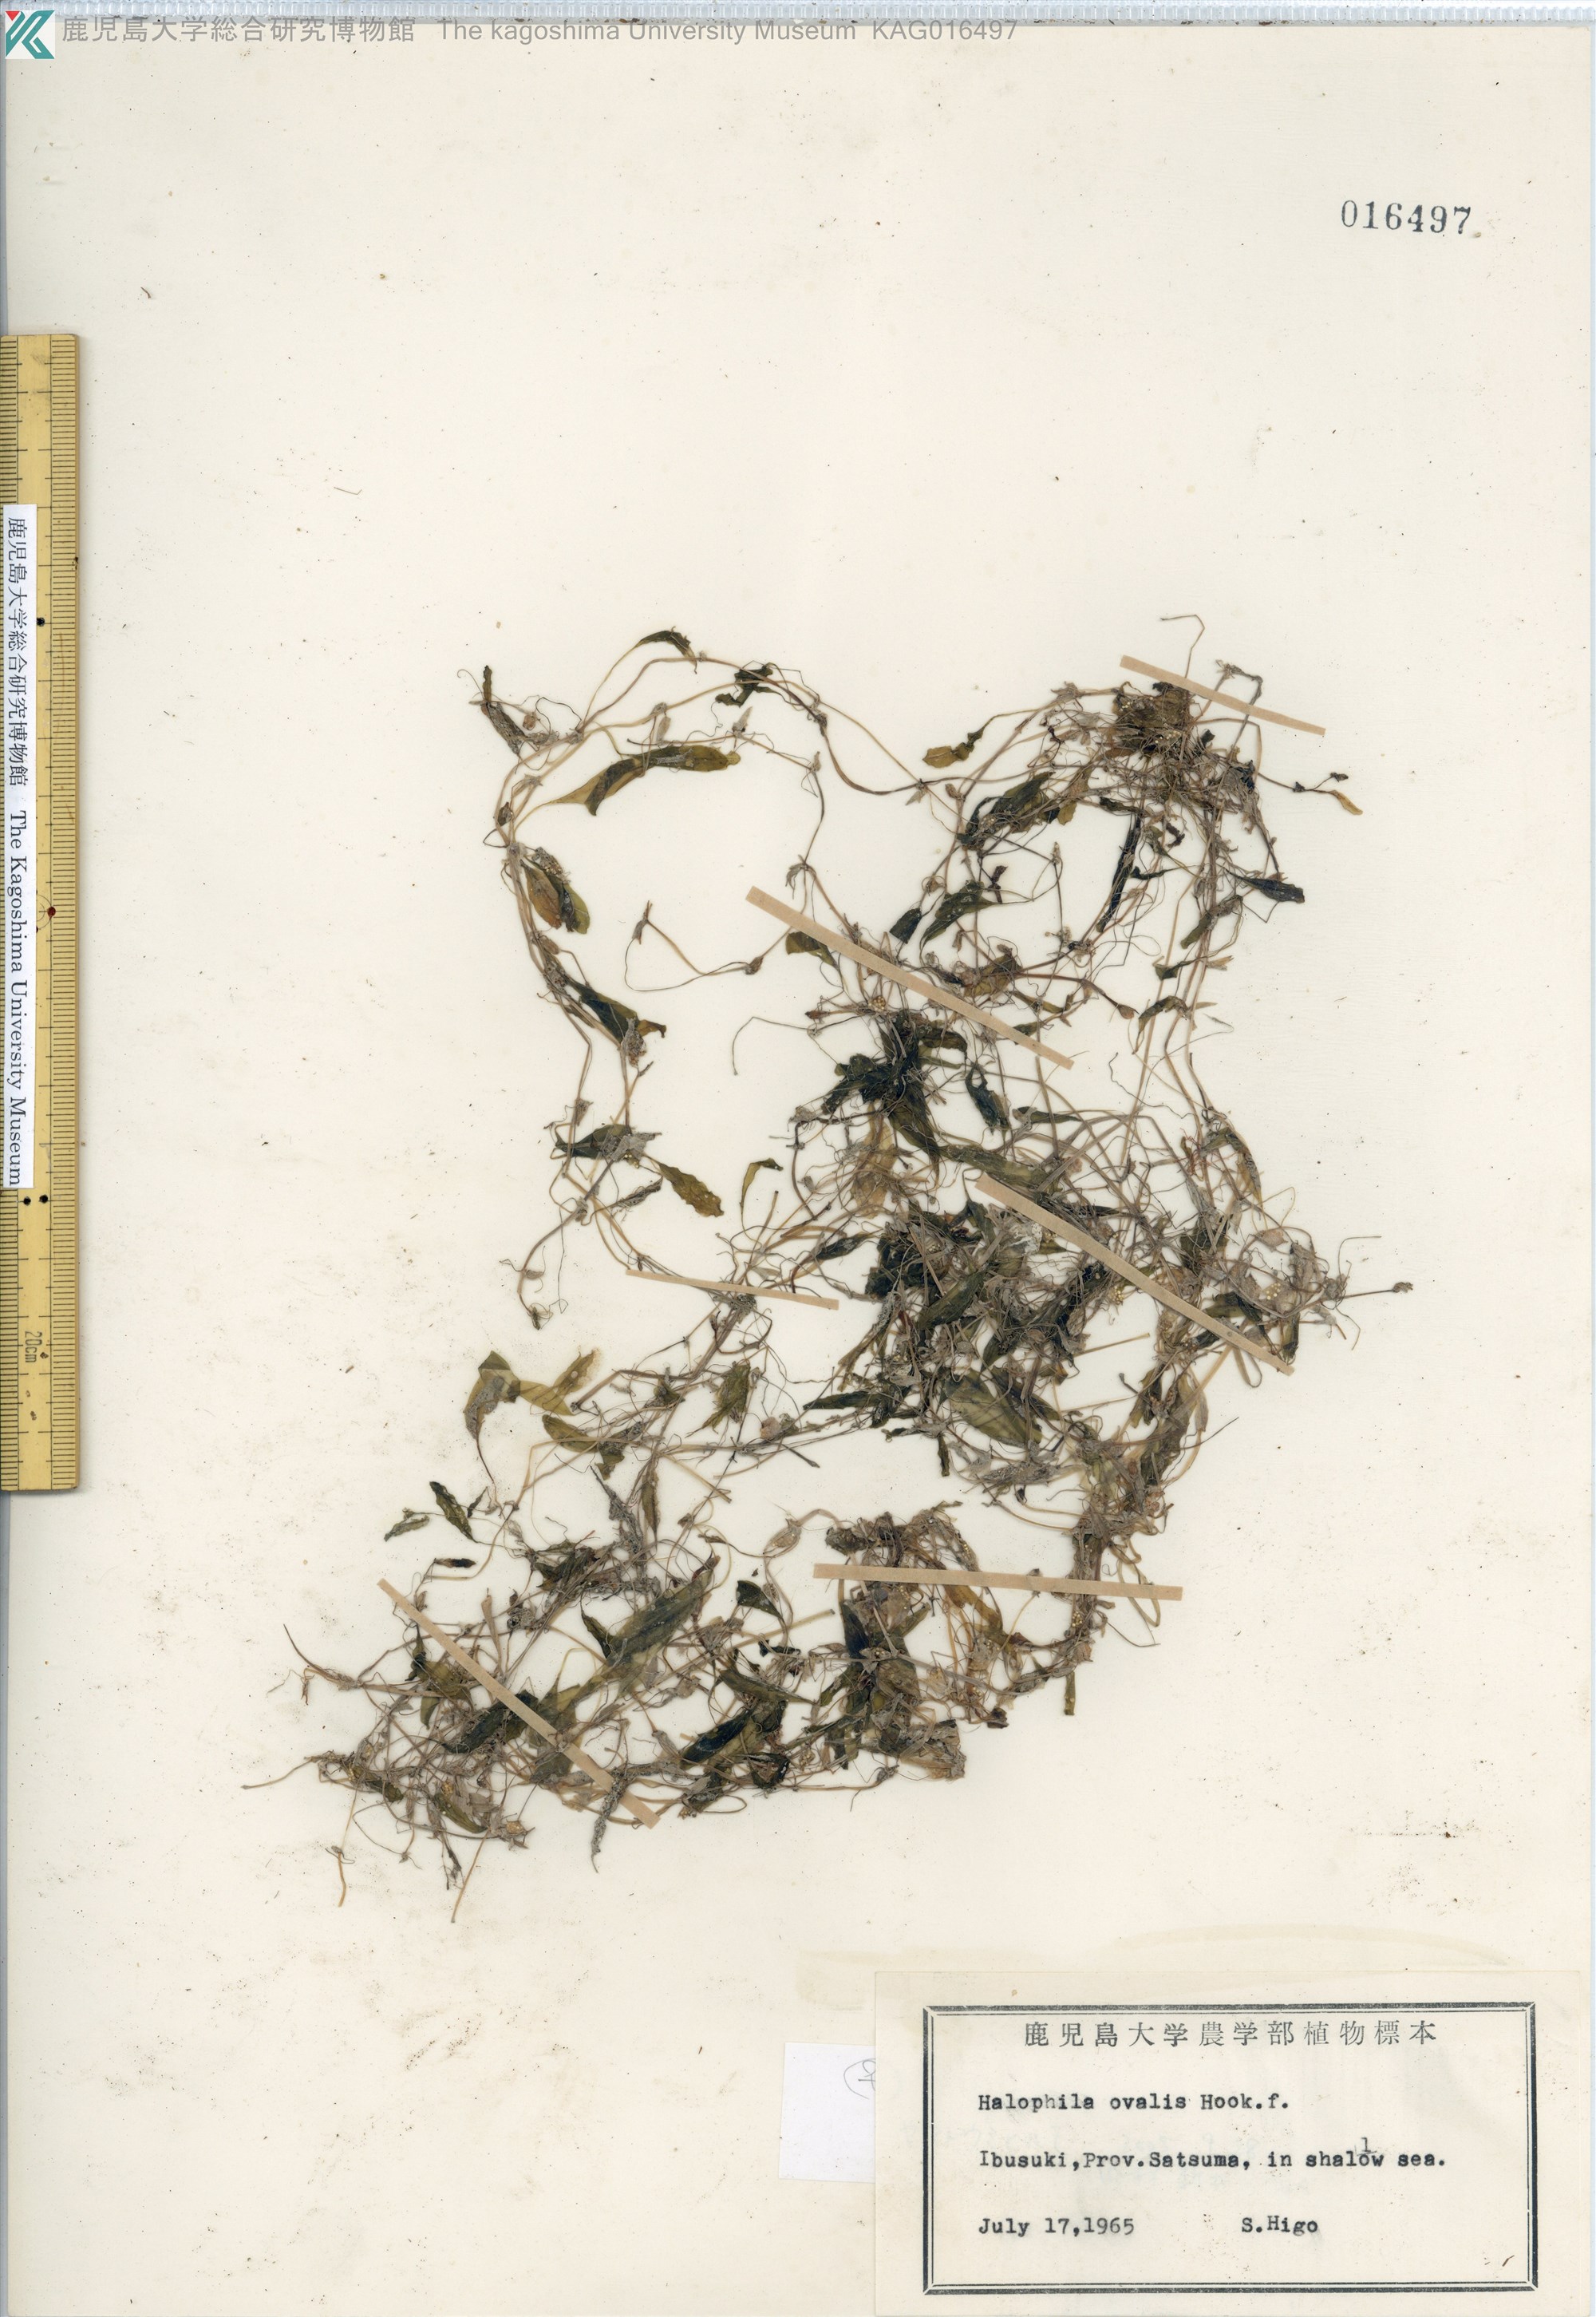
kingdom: Plantae
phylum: Tracheophyta
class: Liliopsida
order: Alismatales
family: Hydrocharitaceae
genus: Halophila
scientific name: Halophila ovalis
